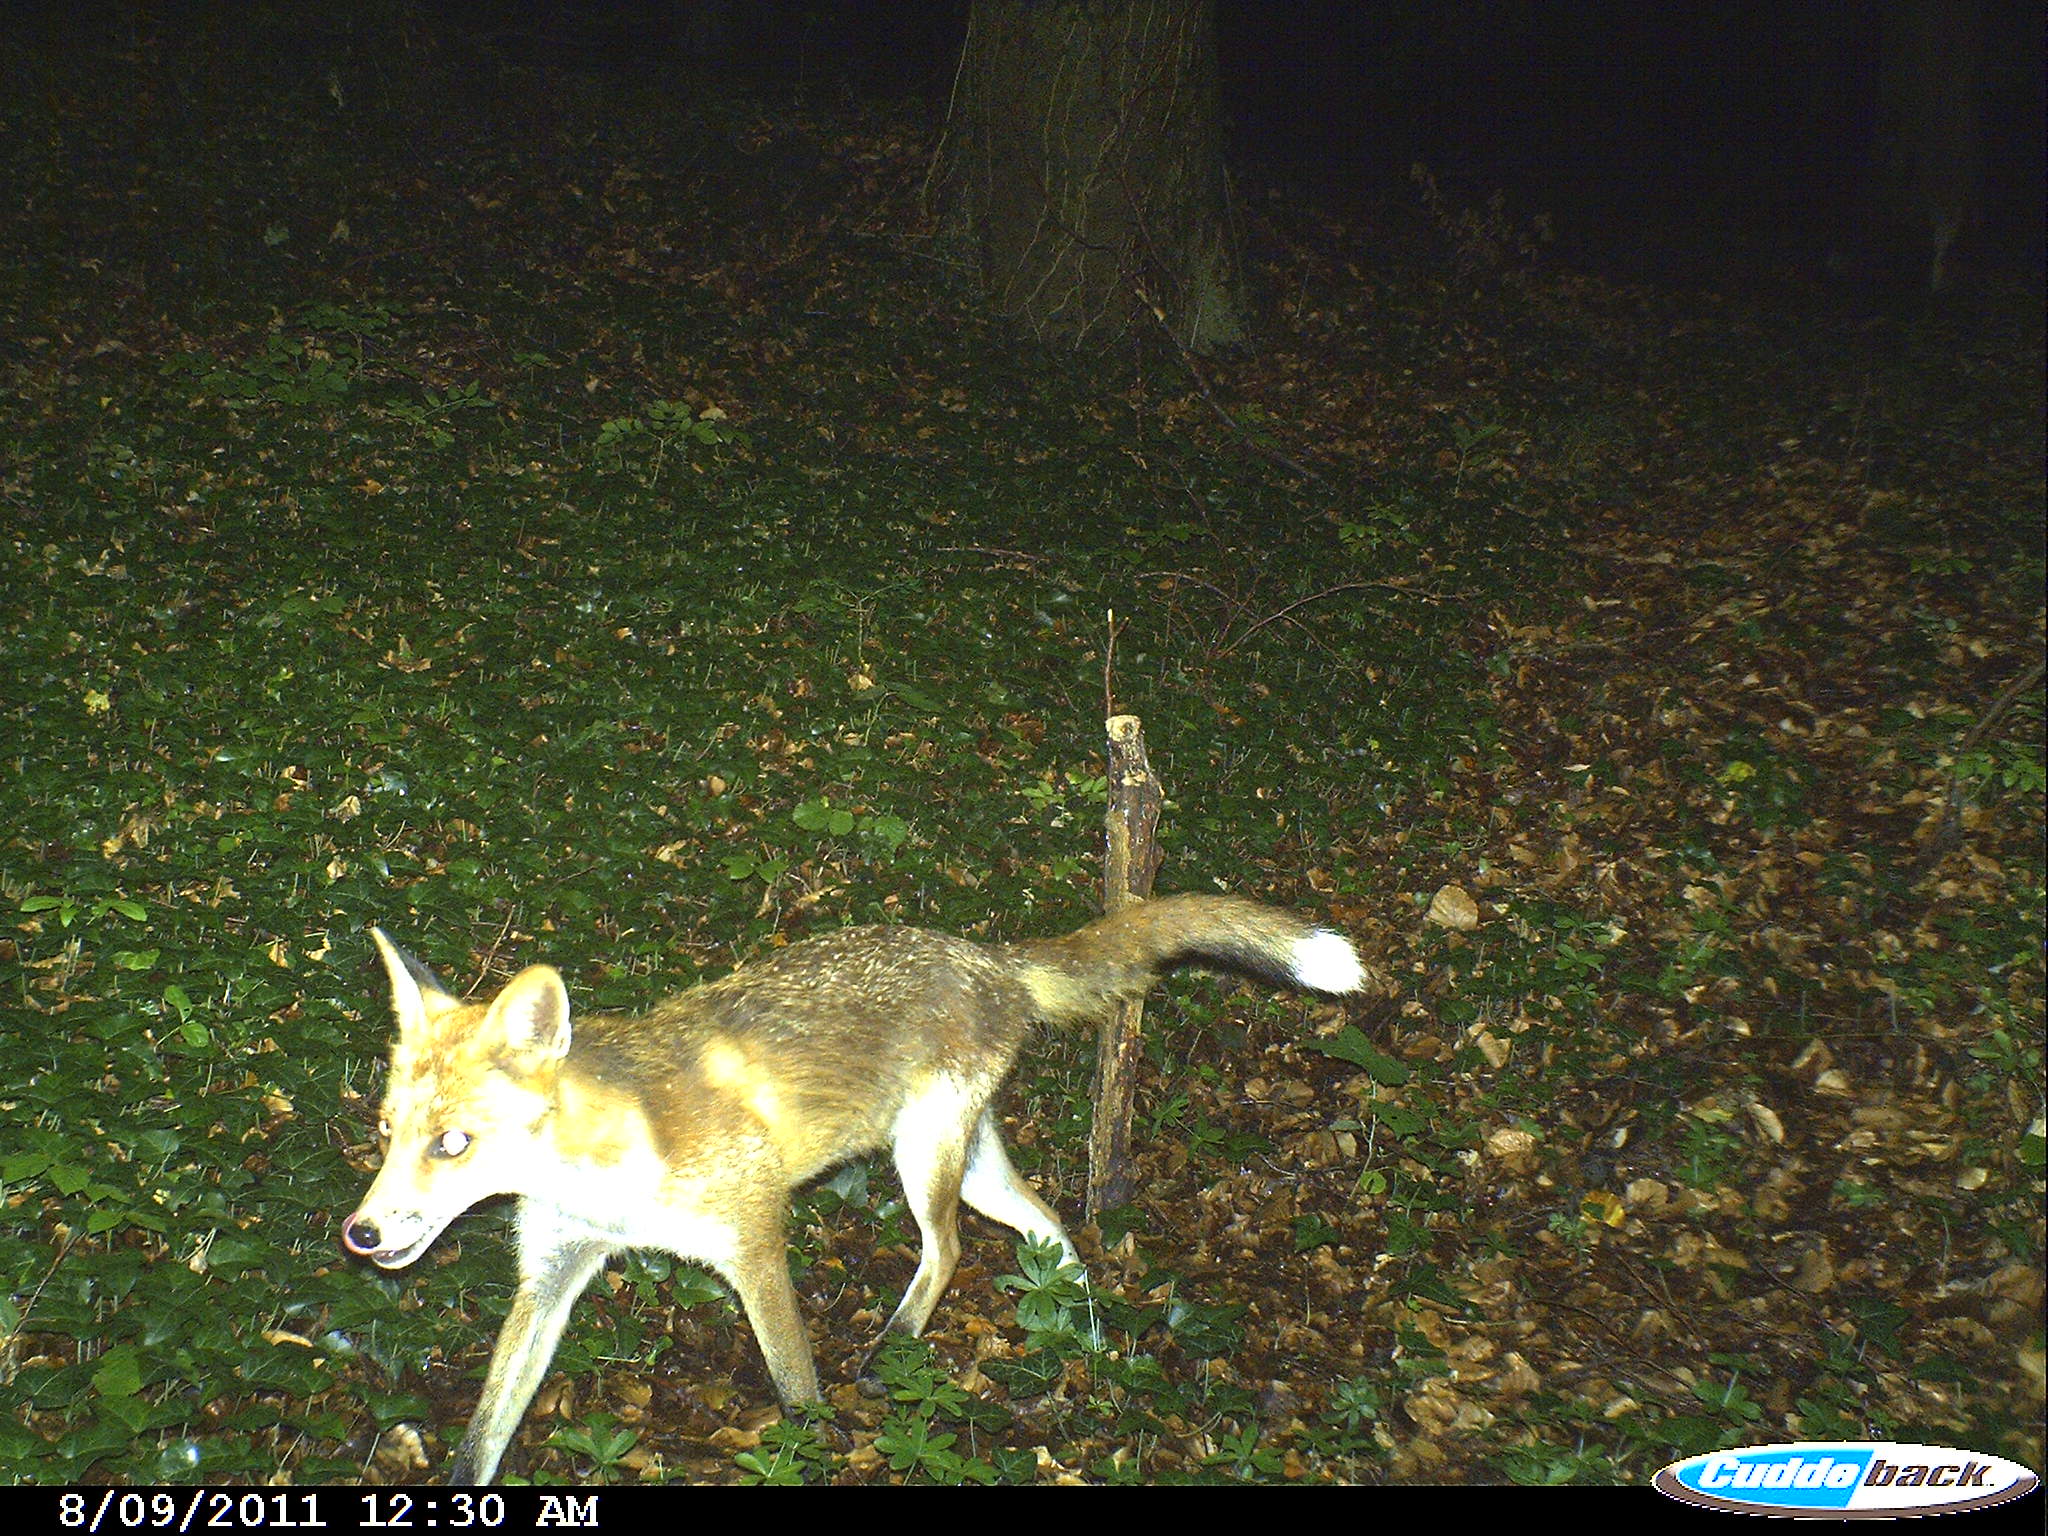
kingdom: Animalia
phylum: Chordata
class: Mammalia
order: Carnivora
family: Canidae
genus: Vulpes
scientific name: Vulpes vulpes
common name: Red fox
